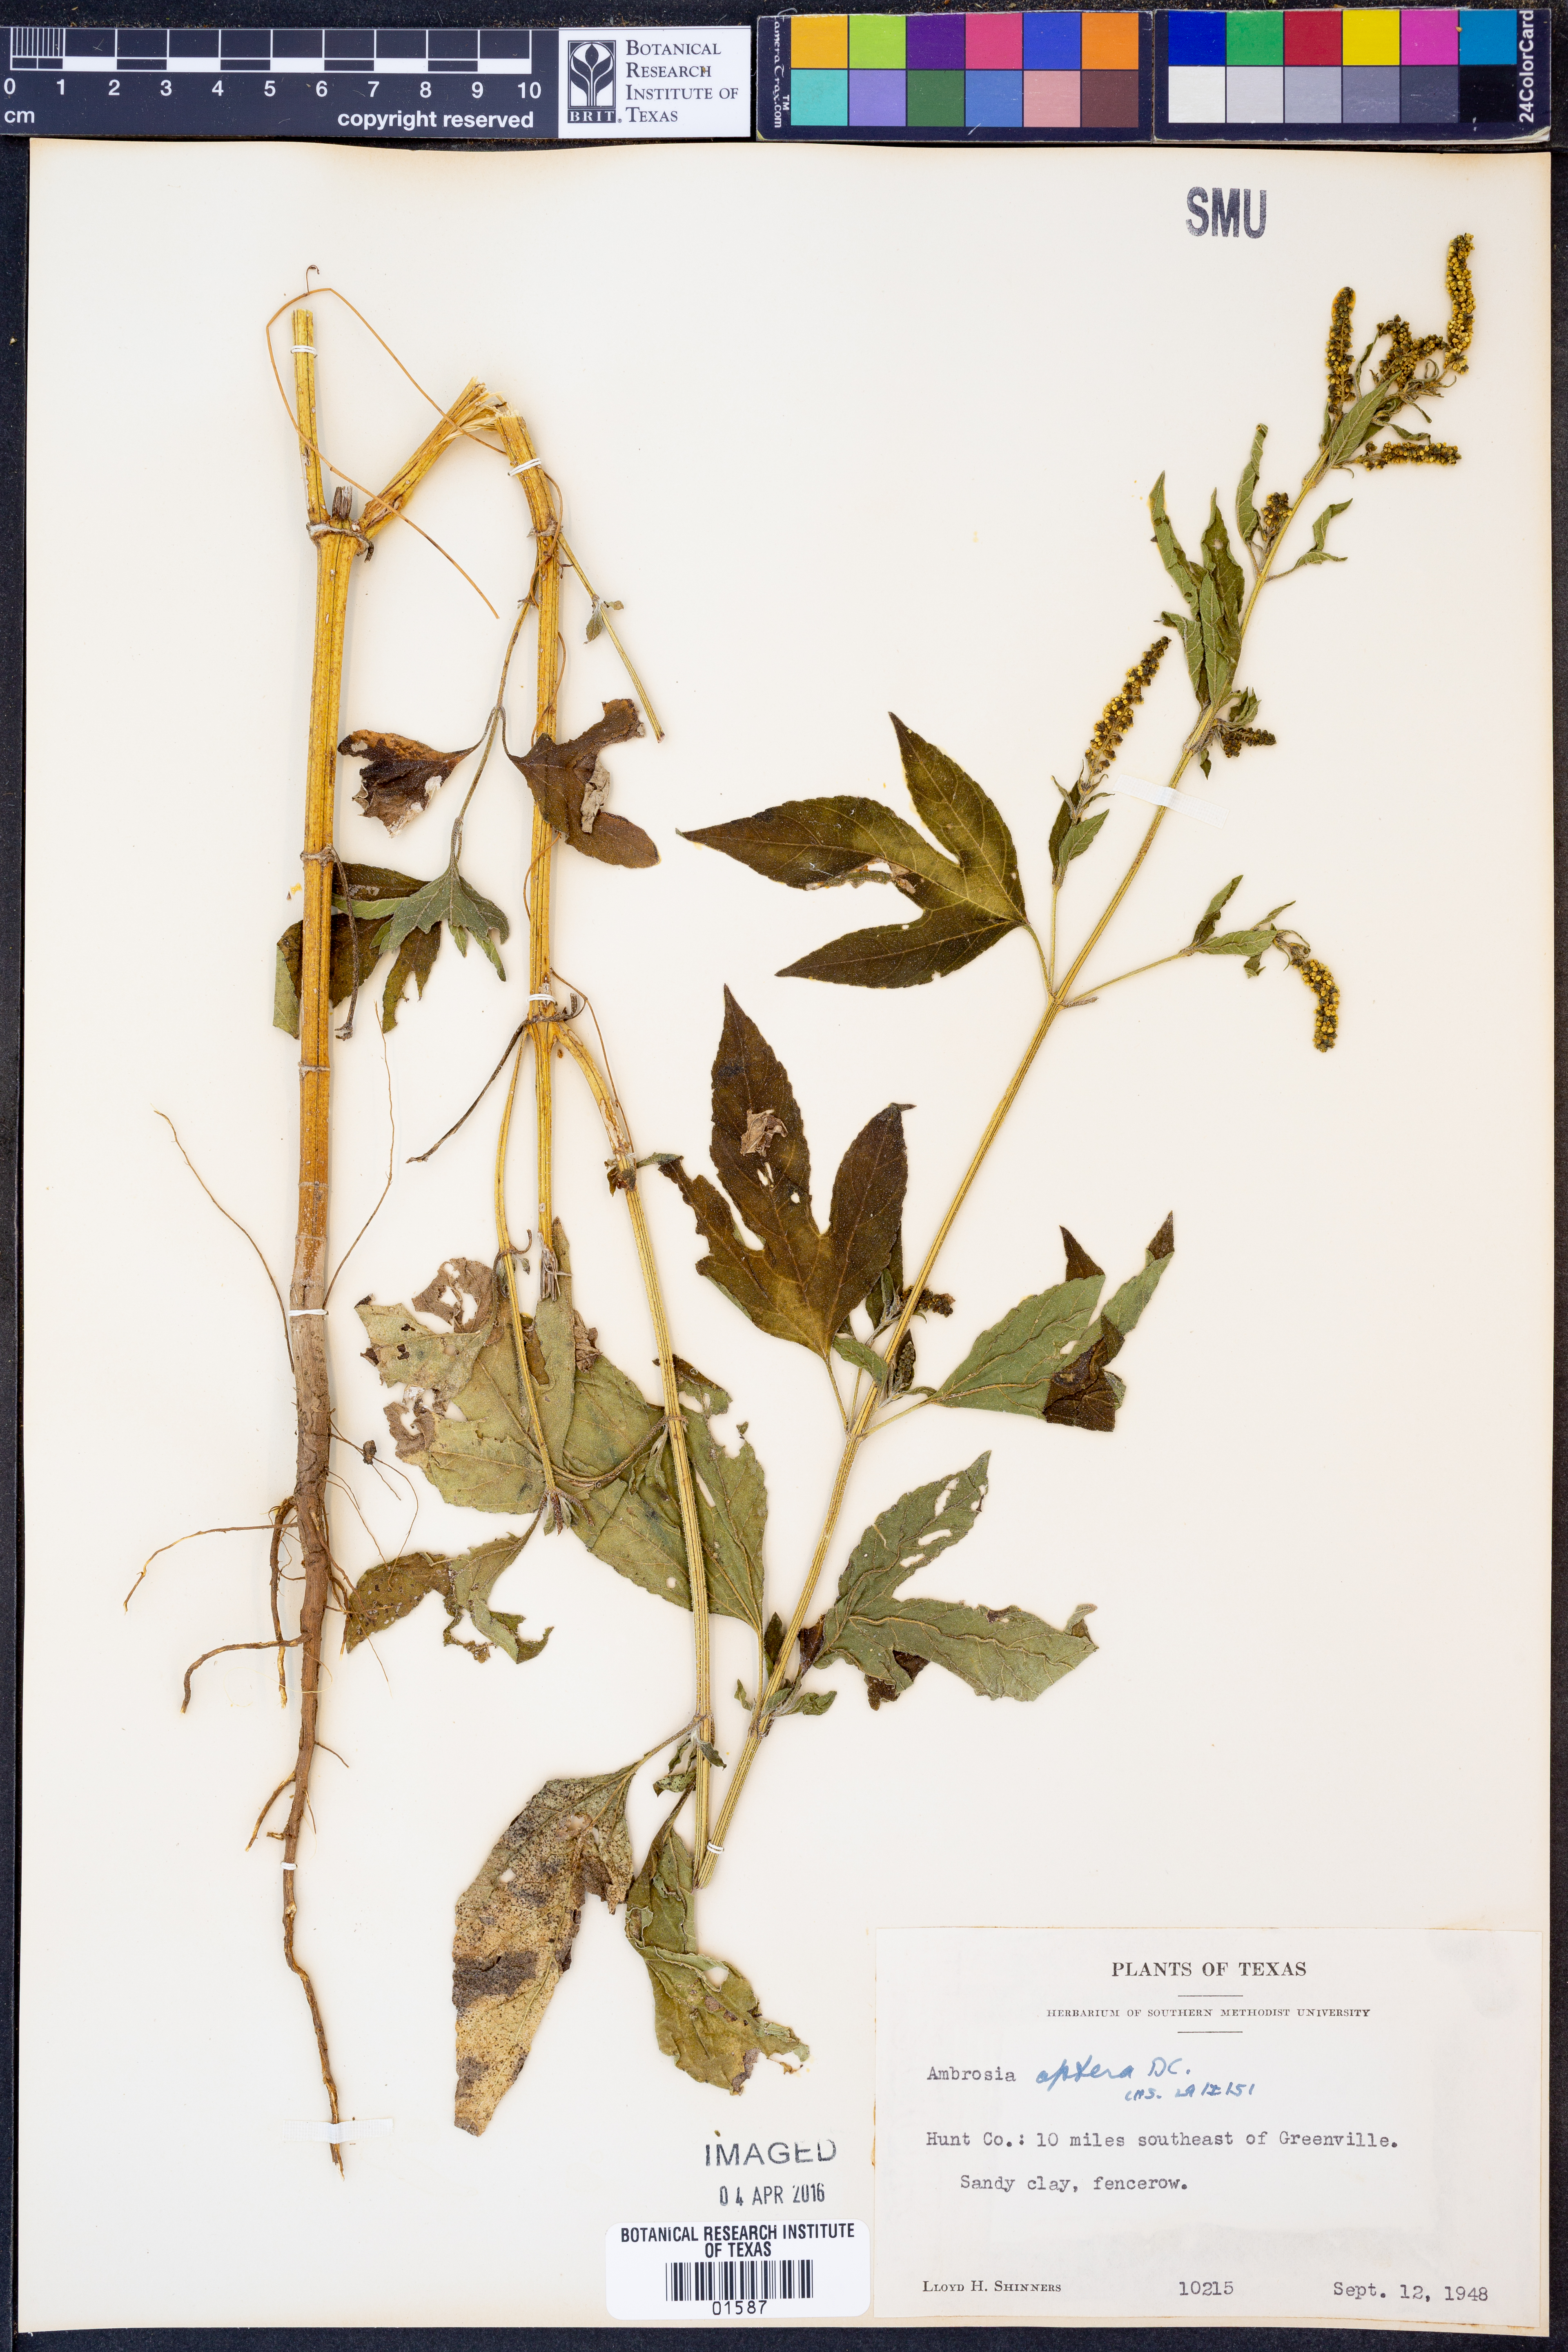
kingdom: Plantae
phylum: Tracheophyta
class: Magnoliopsida
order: Asterales
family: Asteraceae
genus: Ambrosia
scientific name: Ambrosia trifida
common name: Giant ragweed
